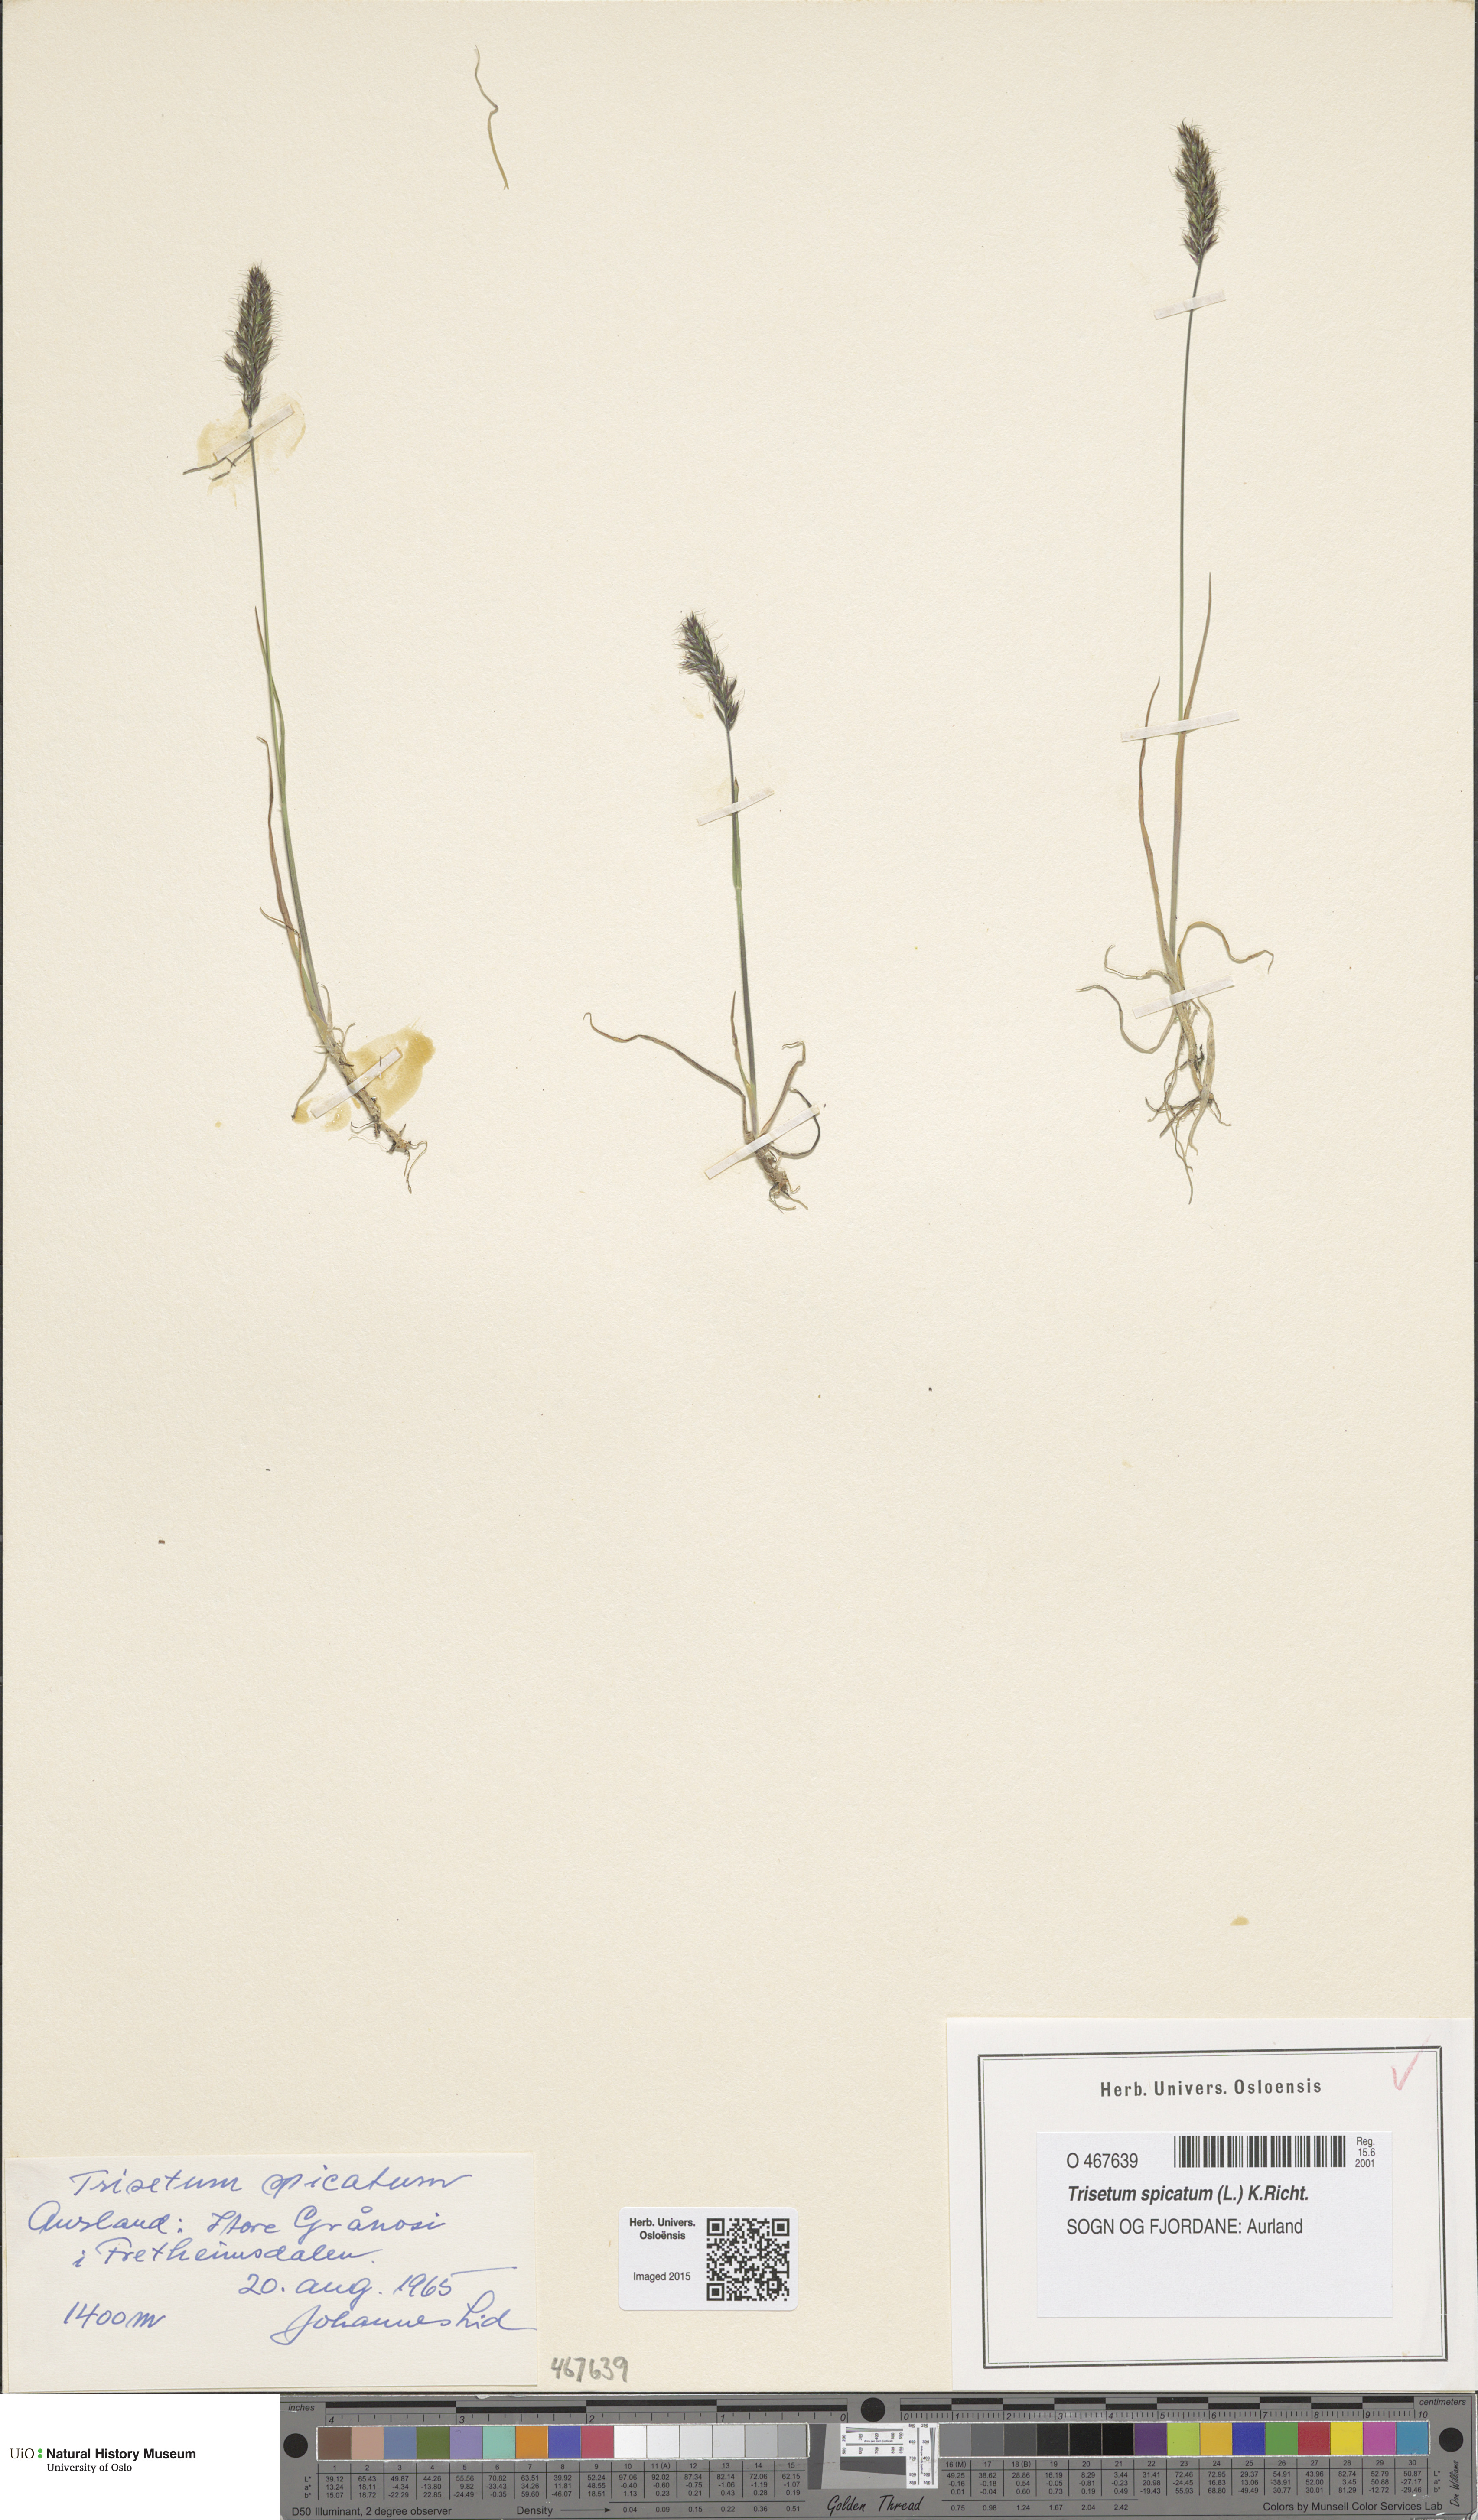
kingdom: Plantae
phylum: Tracheophyta
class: Liliopsida
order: Poales
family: Poaceae
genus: Koeleria
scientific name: Koeleria spicata
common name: Mountain trisetum
